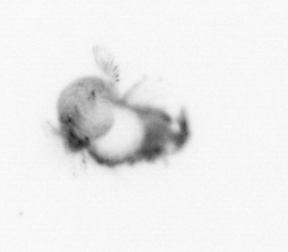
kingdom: Animalia
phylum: Annelida
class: Polychaeta
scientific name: Polychaeta
